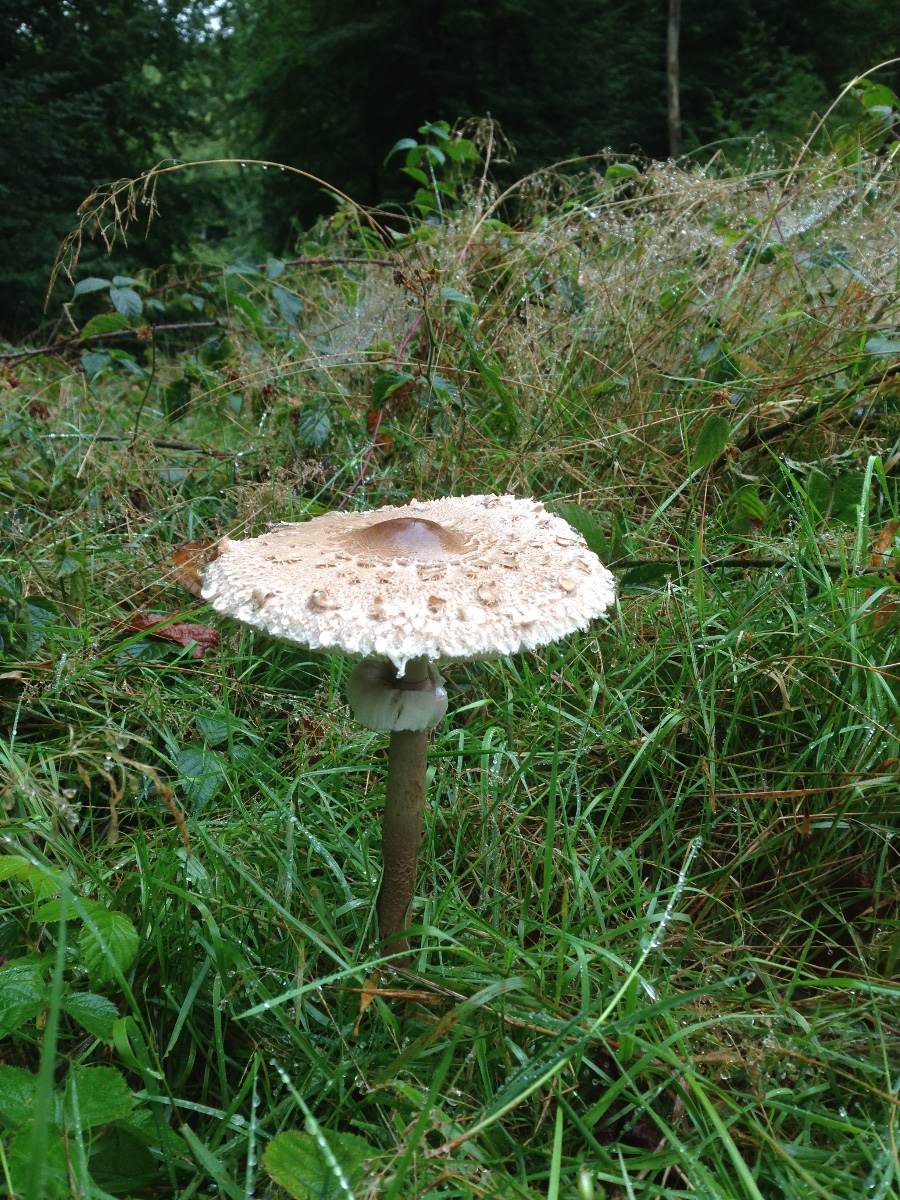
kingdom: Fungi
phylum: Basidiomycota
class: Agaricomycetes
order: Agaricales
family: Agaricaceae
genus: Macrolepiota
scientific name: Macrolepiota procera
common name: stor kæmpeparasolhat
